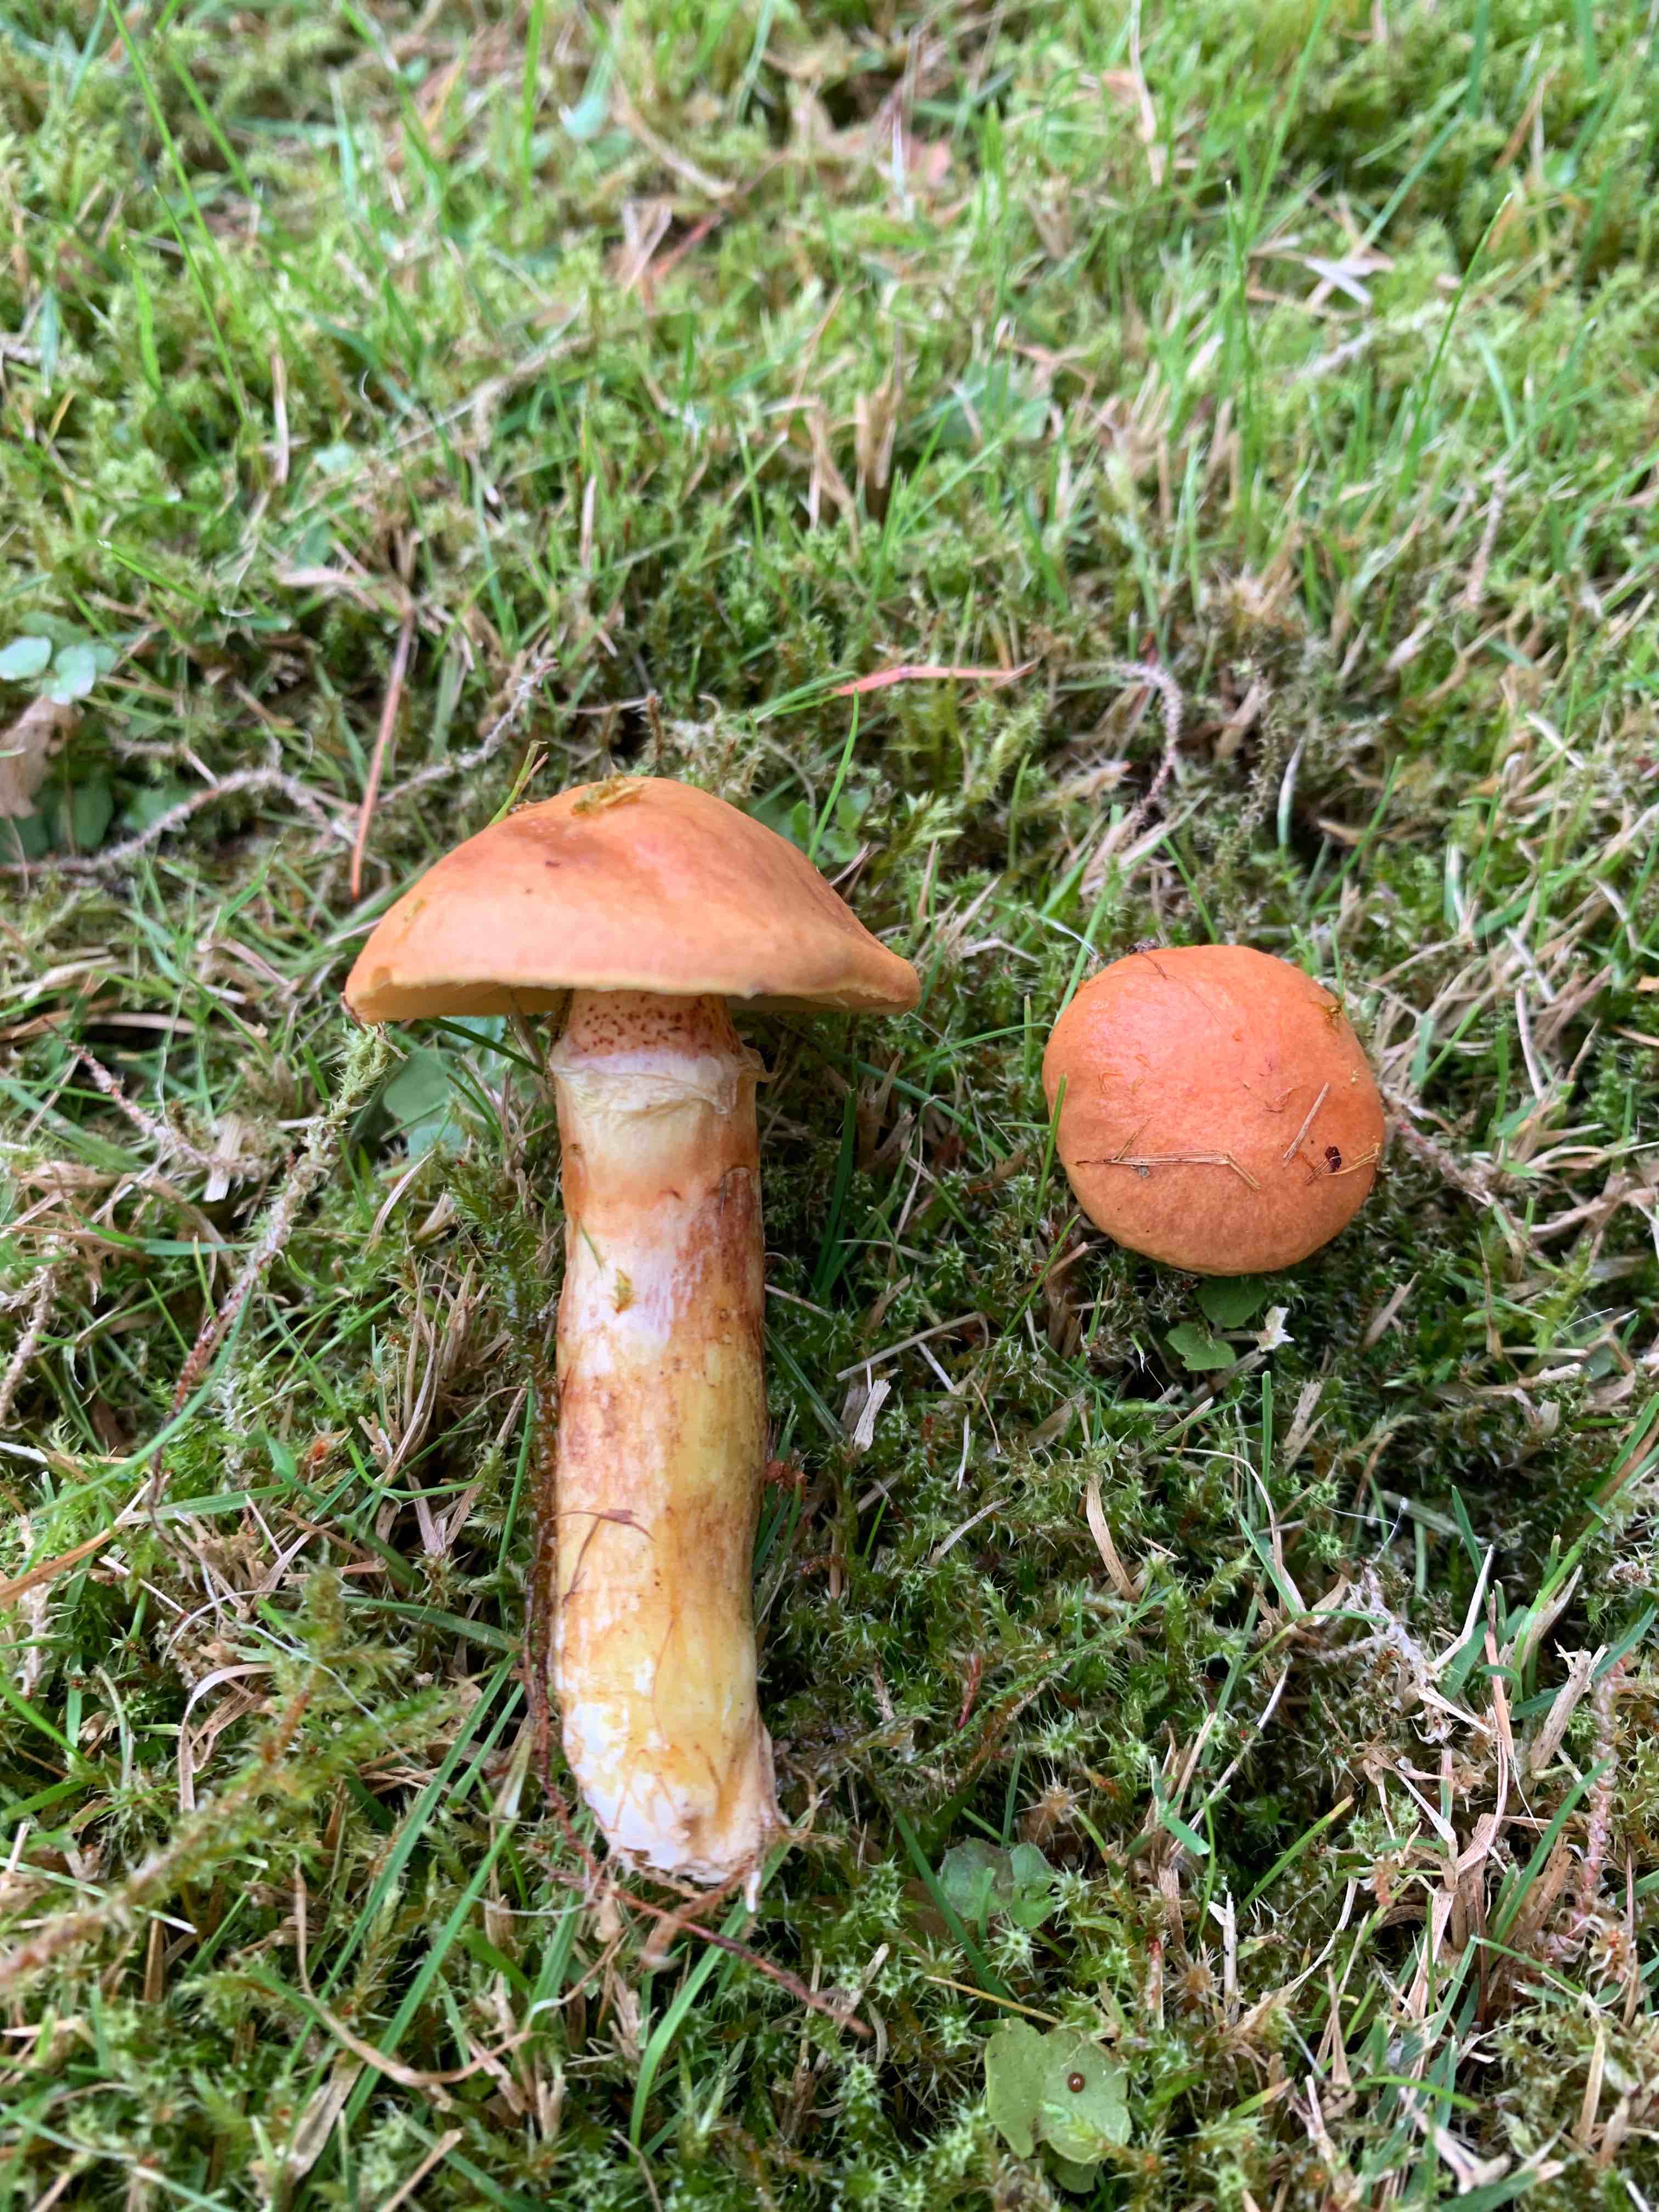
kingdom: Fungi
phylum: Basidiomycota
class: Agaricomycetes
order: Boletales
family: Suillaceae
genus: Suillus
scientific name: Suillus grevillei
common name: lærke-slimrørhat
